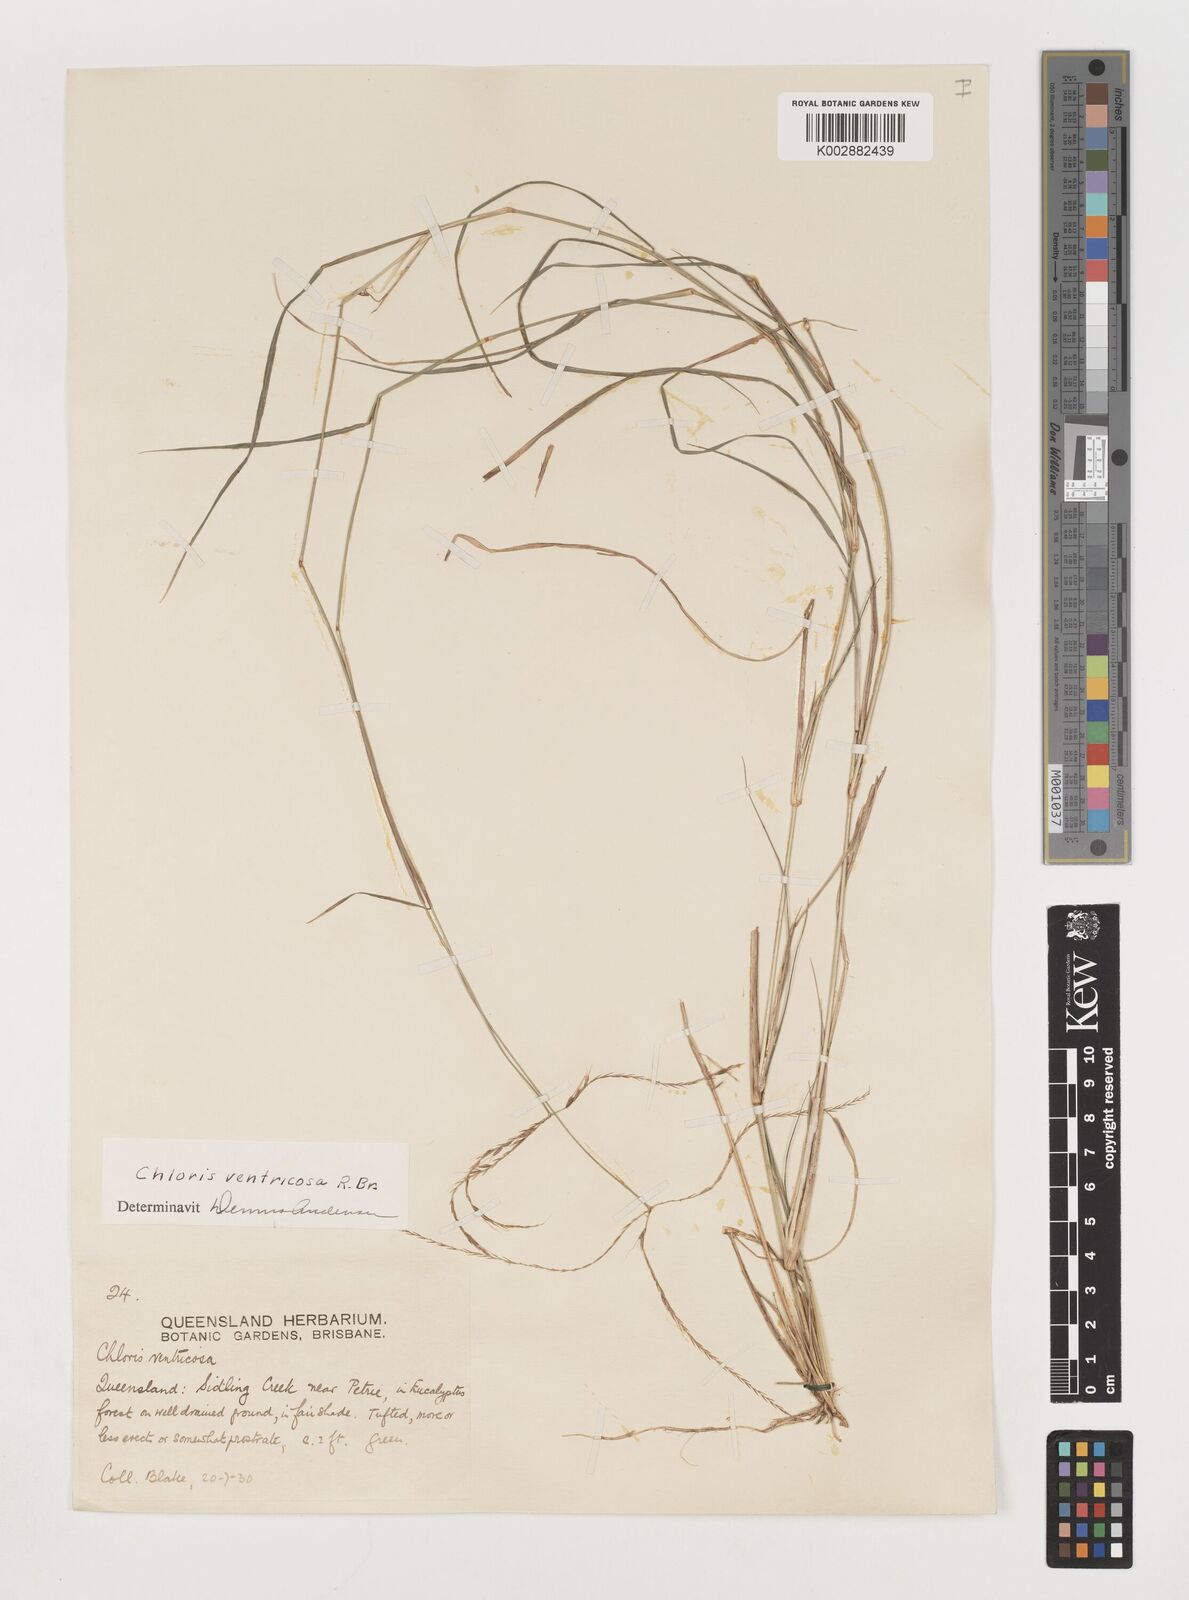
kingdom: Plantae
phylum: Tracheophyta
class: Liliopsida
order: Poales
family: Poaceae
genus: Chloris
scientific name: Chloris ventricosa
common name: Australian windmill grass
